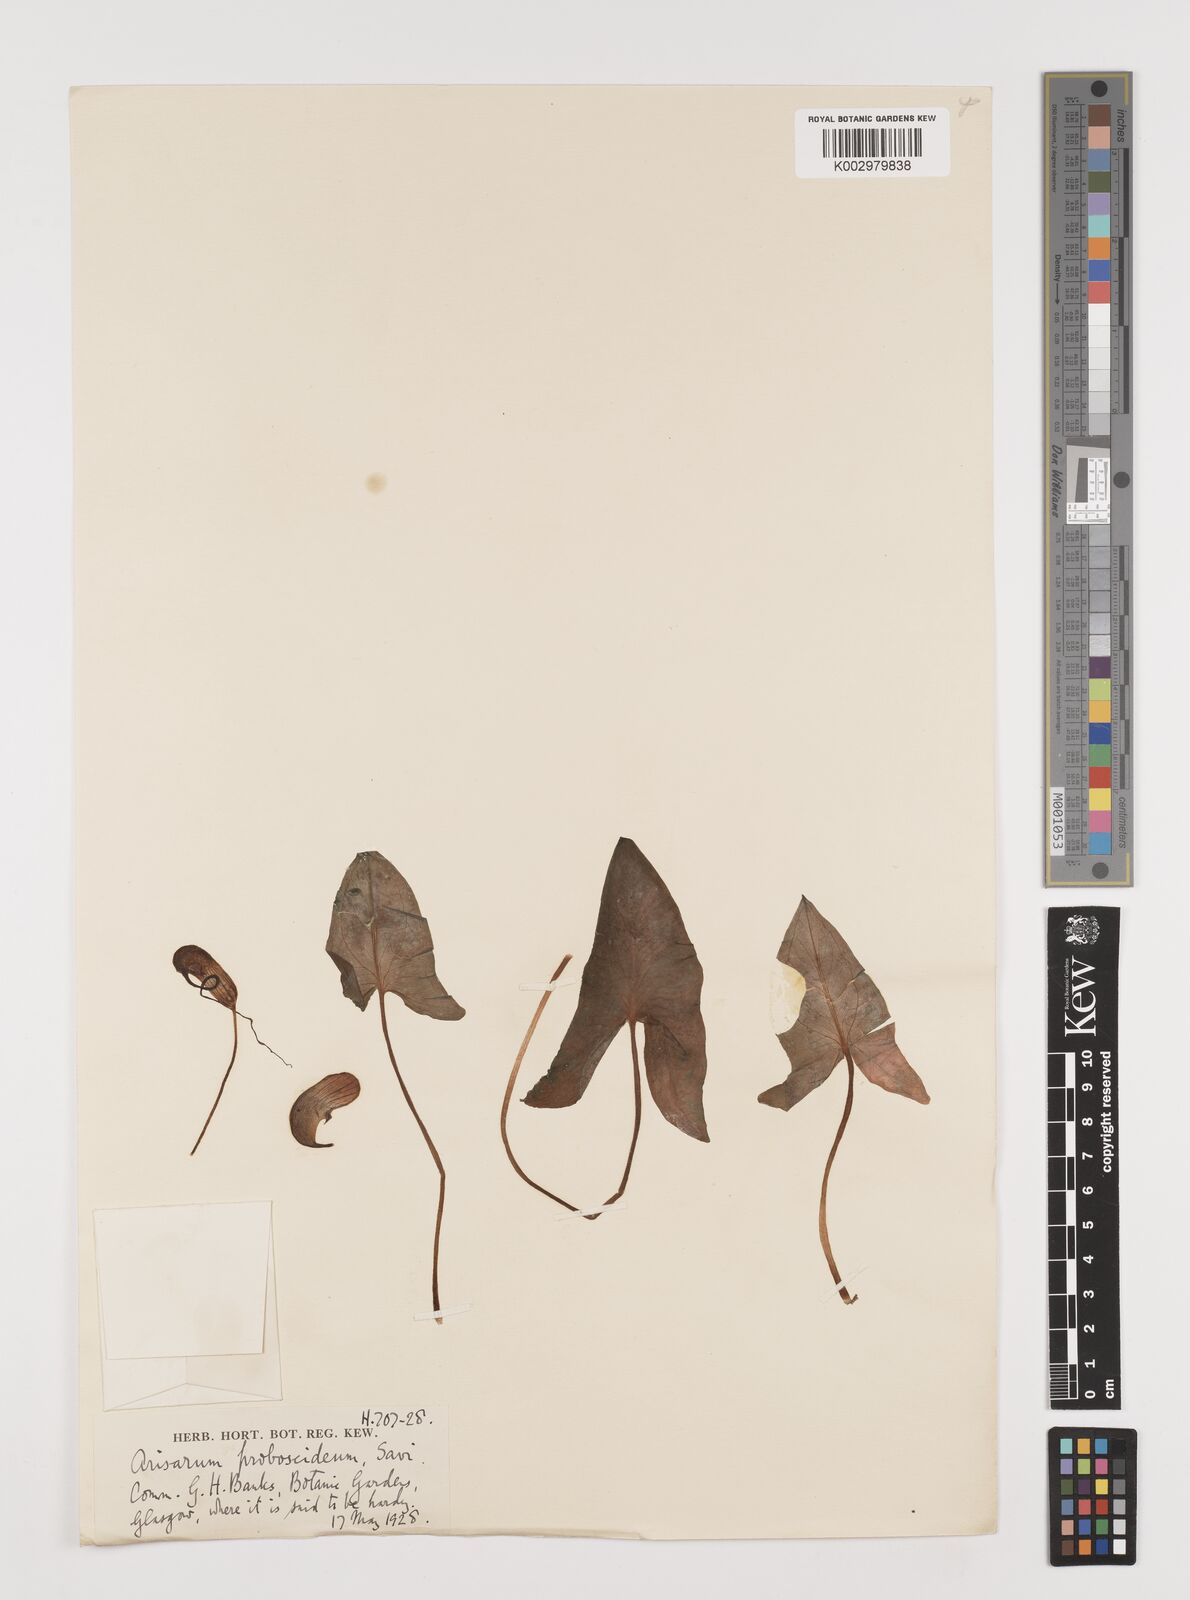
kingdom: Plantae
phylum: Tracheophyta
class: Liliopsida
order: Alismatales
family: Araceae
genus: Arisarum
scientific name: Arisarum proboscideum
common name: Mousetailplant
